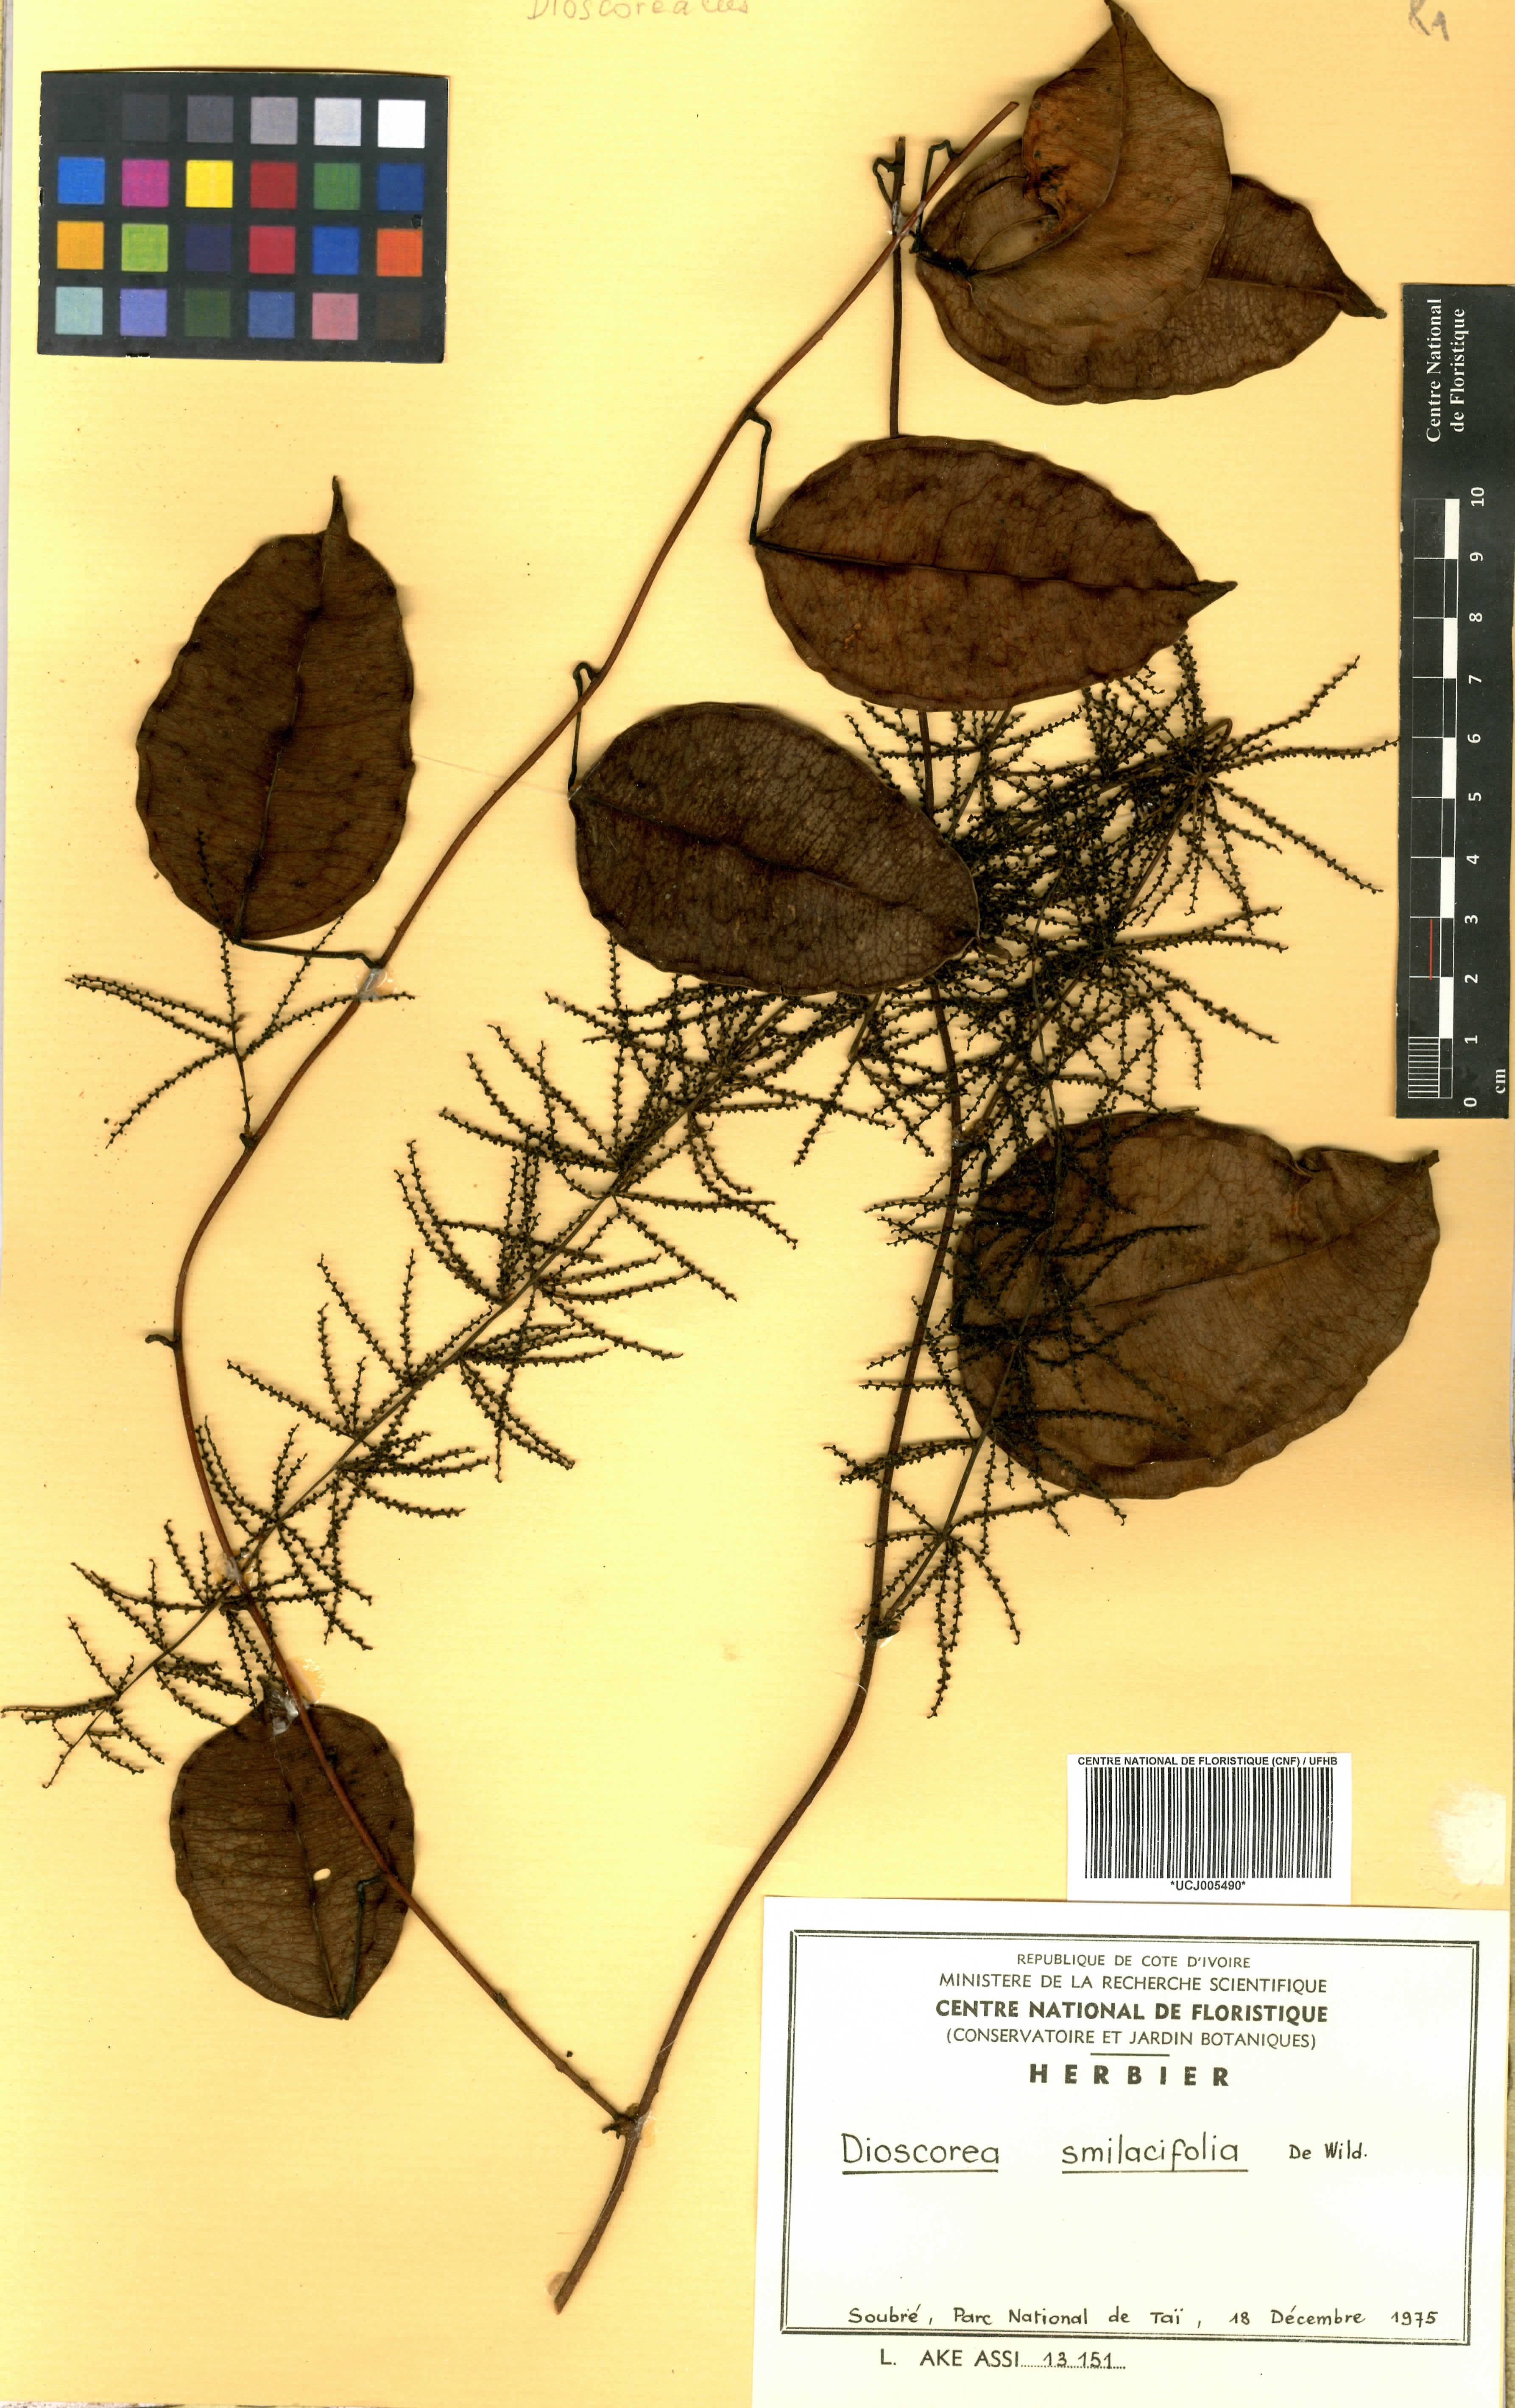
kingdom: Plantae
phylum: Tracheophyta
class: Liliopsida
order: Dioscoreales
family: Dioscoreaceae
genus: Dioscorea
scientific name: Dioscorea smilacifolia
